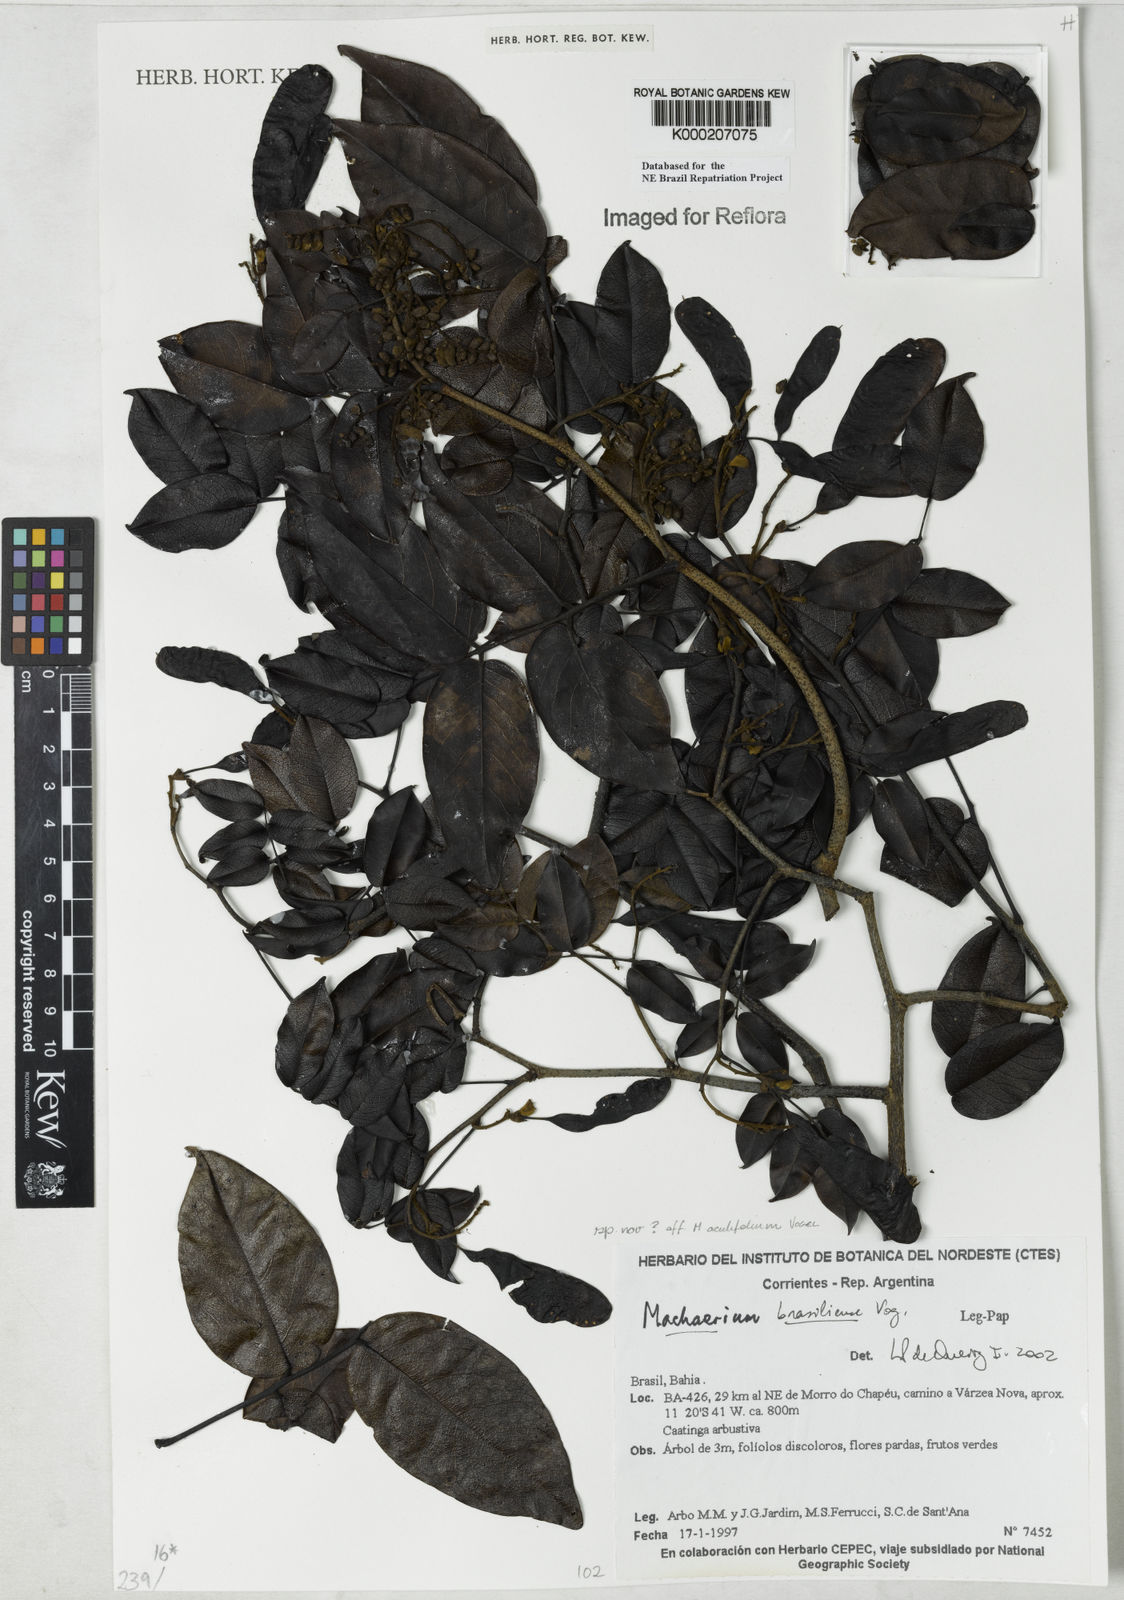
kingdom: Plantae
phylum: Tracheophyta
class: Magnoliopsida
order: Fabales
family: Fabaceae
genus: Machaerium
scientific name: Machaerium brasiliense
